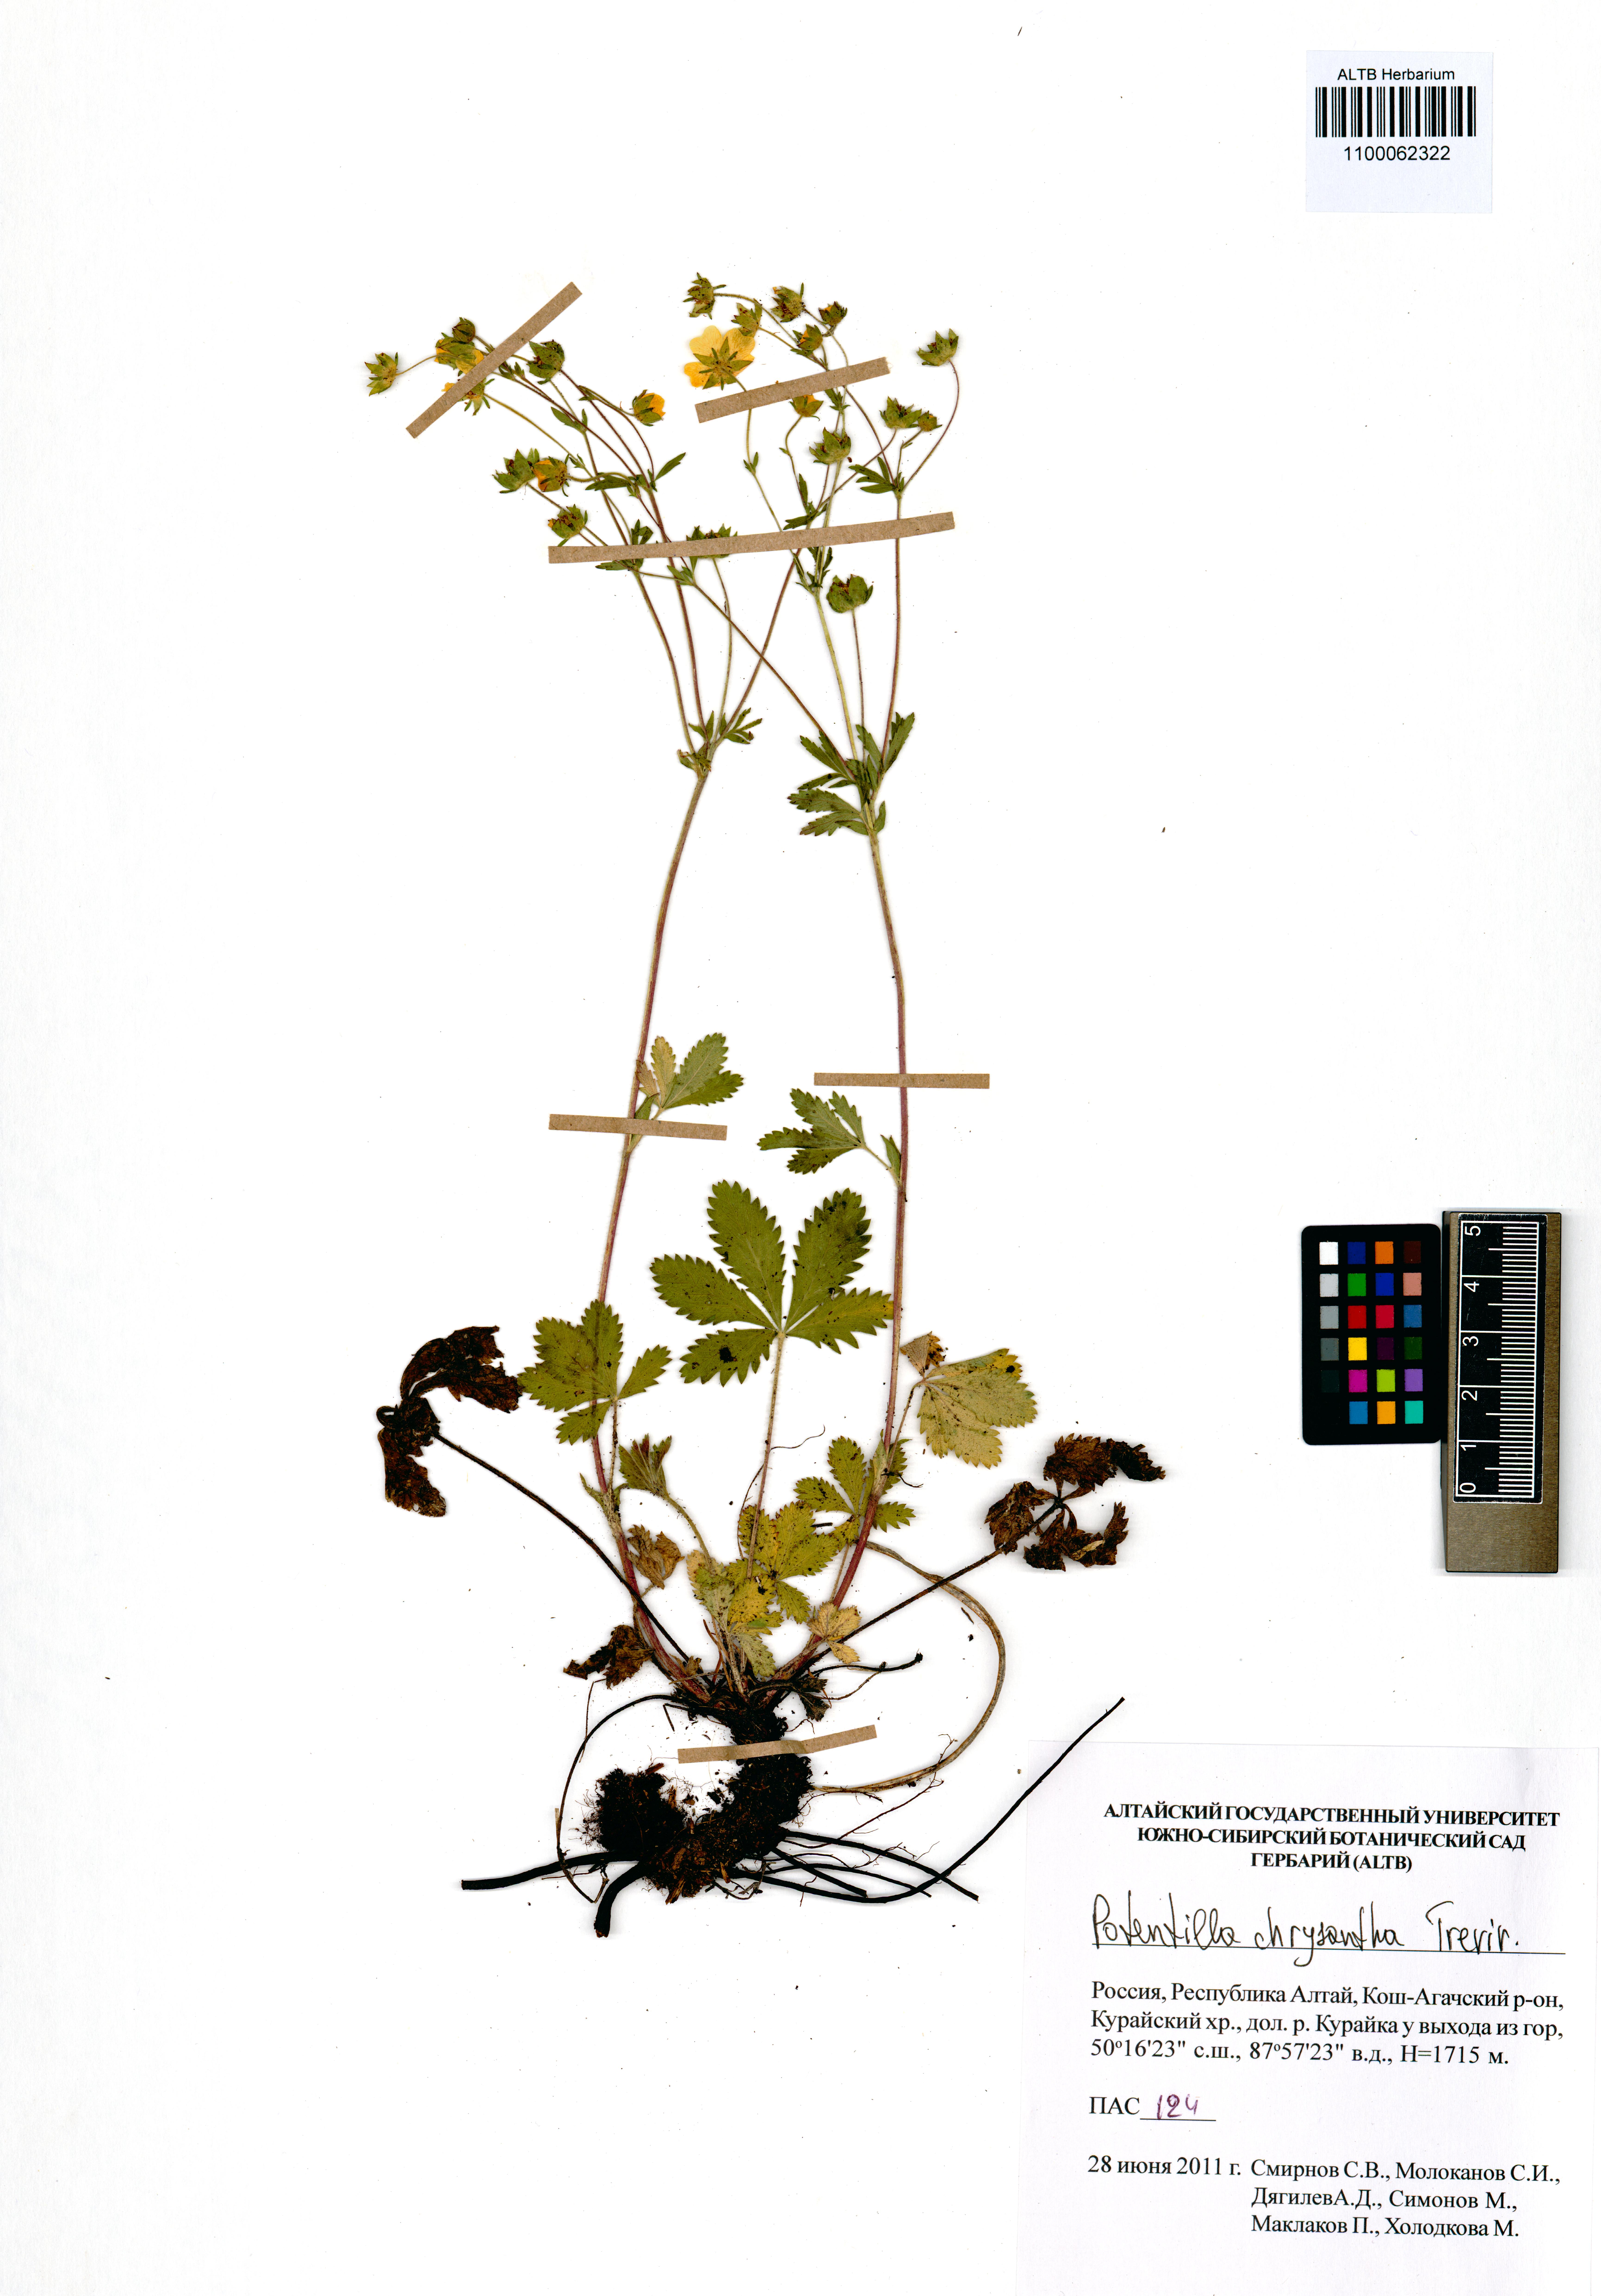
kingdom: Plantae
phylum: Tracheophyta
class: Magnoliopsida
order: Rosales
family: Rosaceae
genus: Potentilla
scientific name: Potentilla chrysantha
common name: Thuringian cinquefoil
